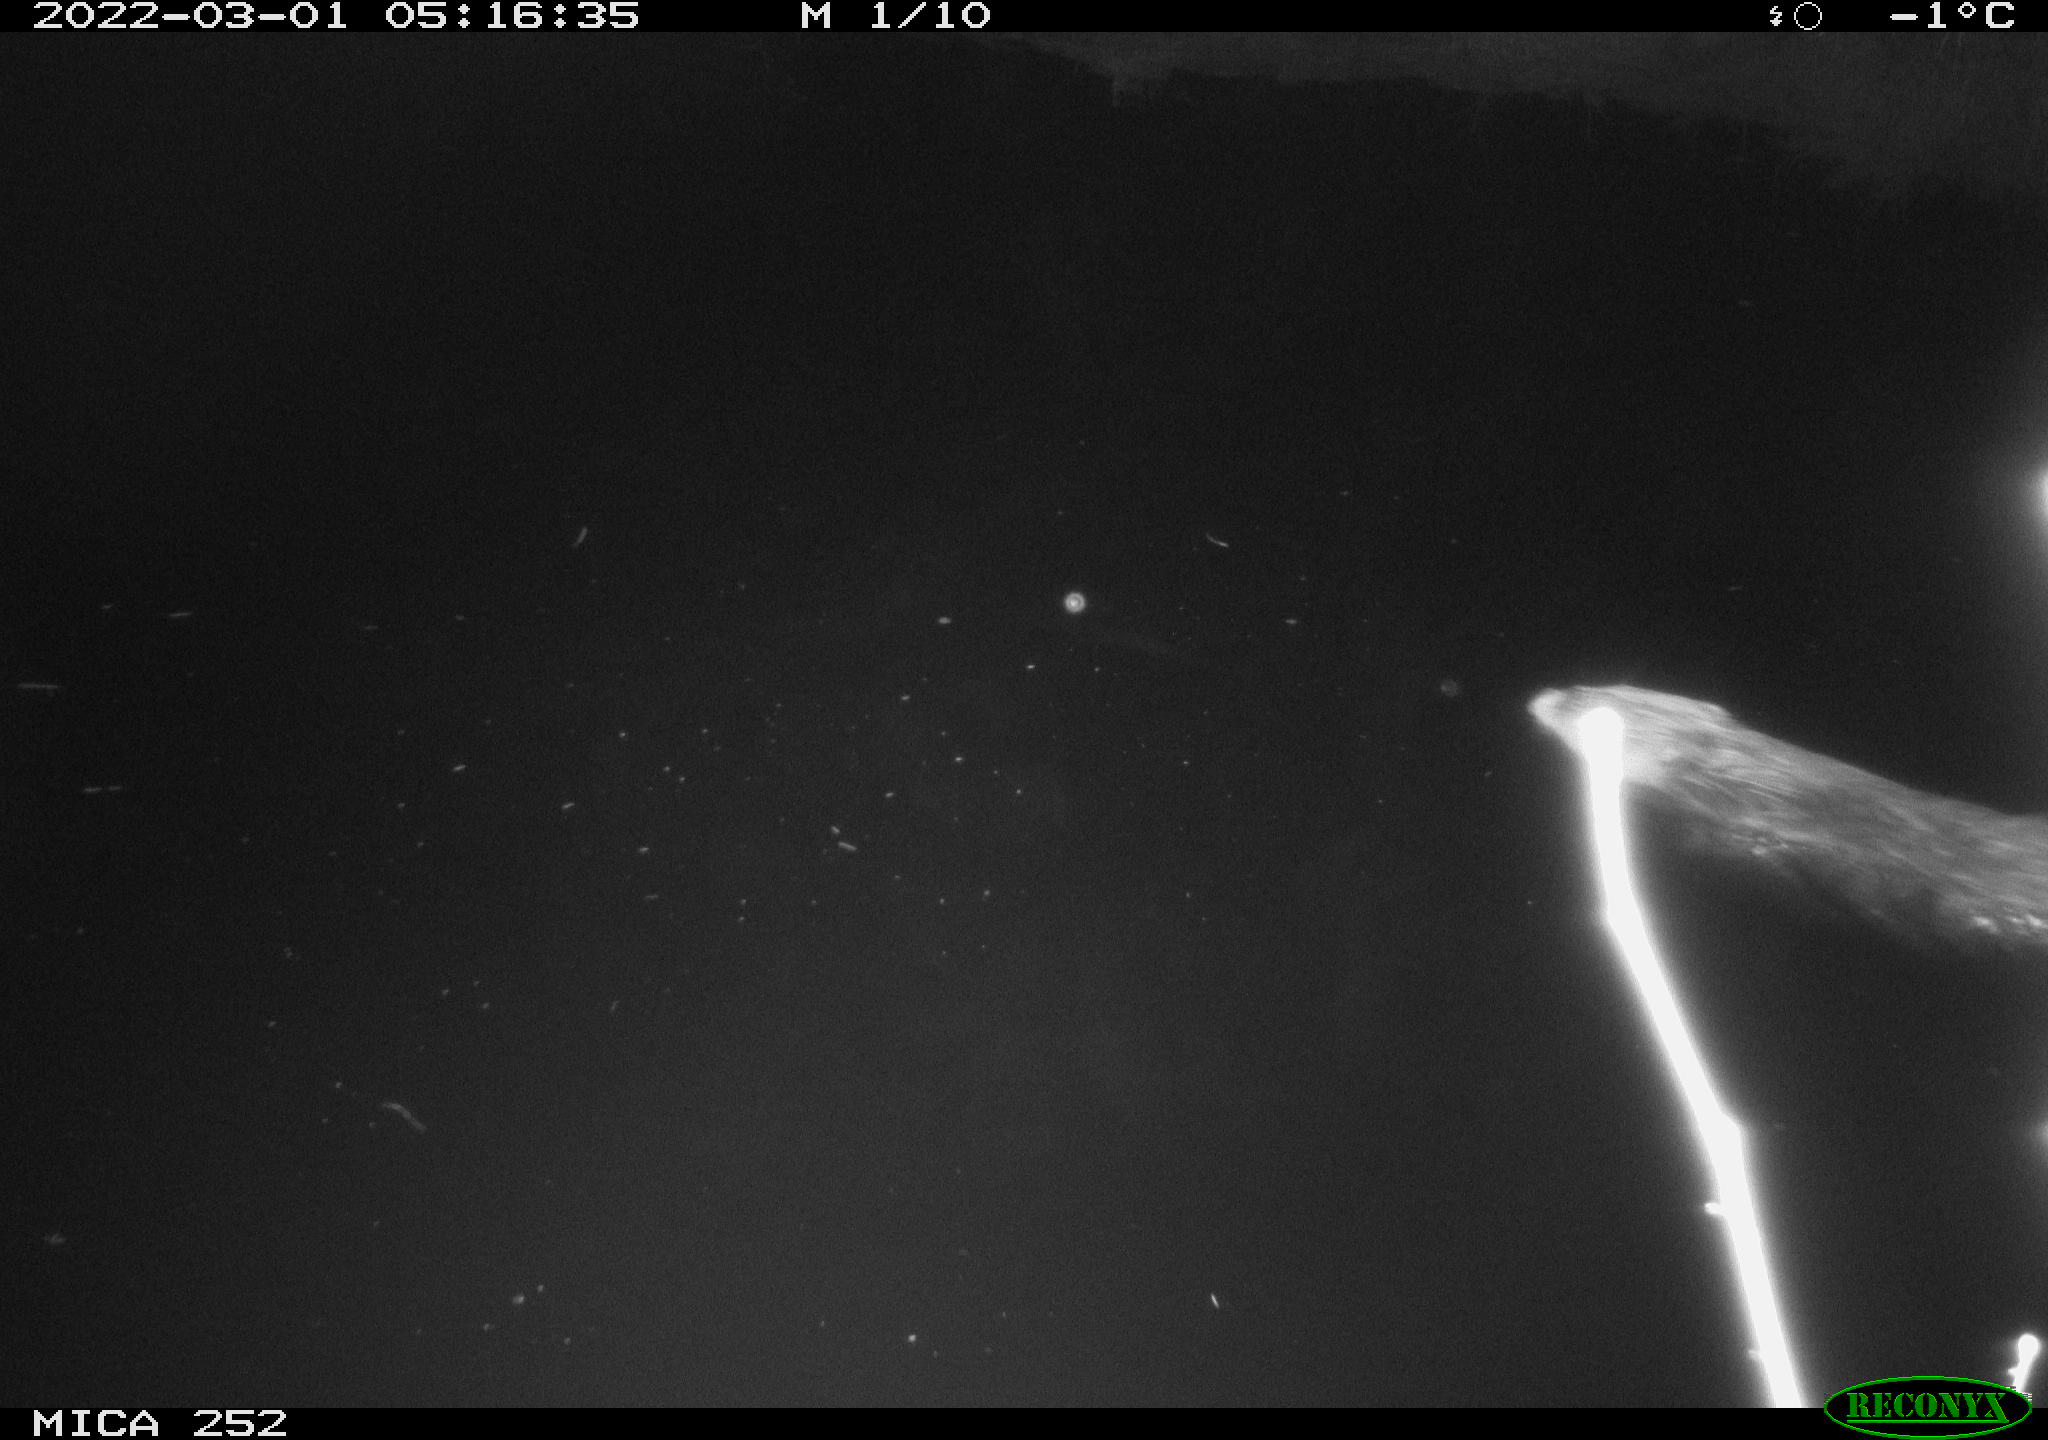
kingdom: Animalia
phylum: Chordata
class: Mammalia
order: Rodentia
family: Castoridae
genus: Castor
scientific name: Castor fiber
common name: Eurasian beaver
